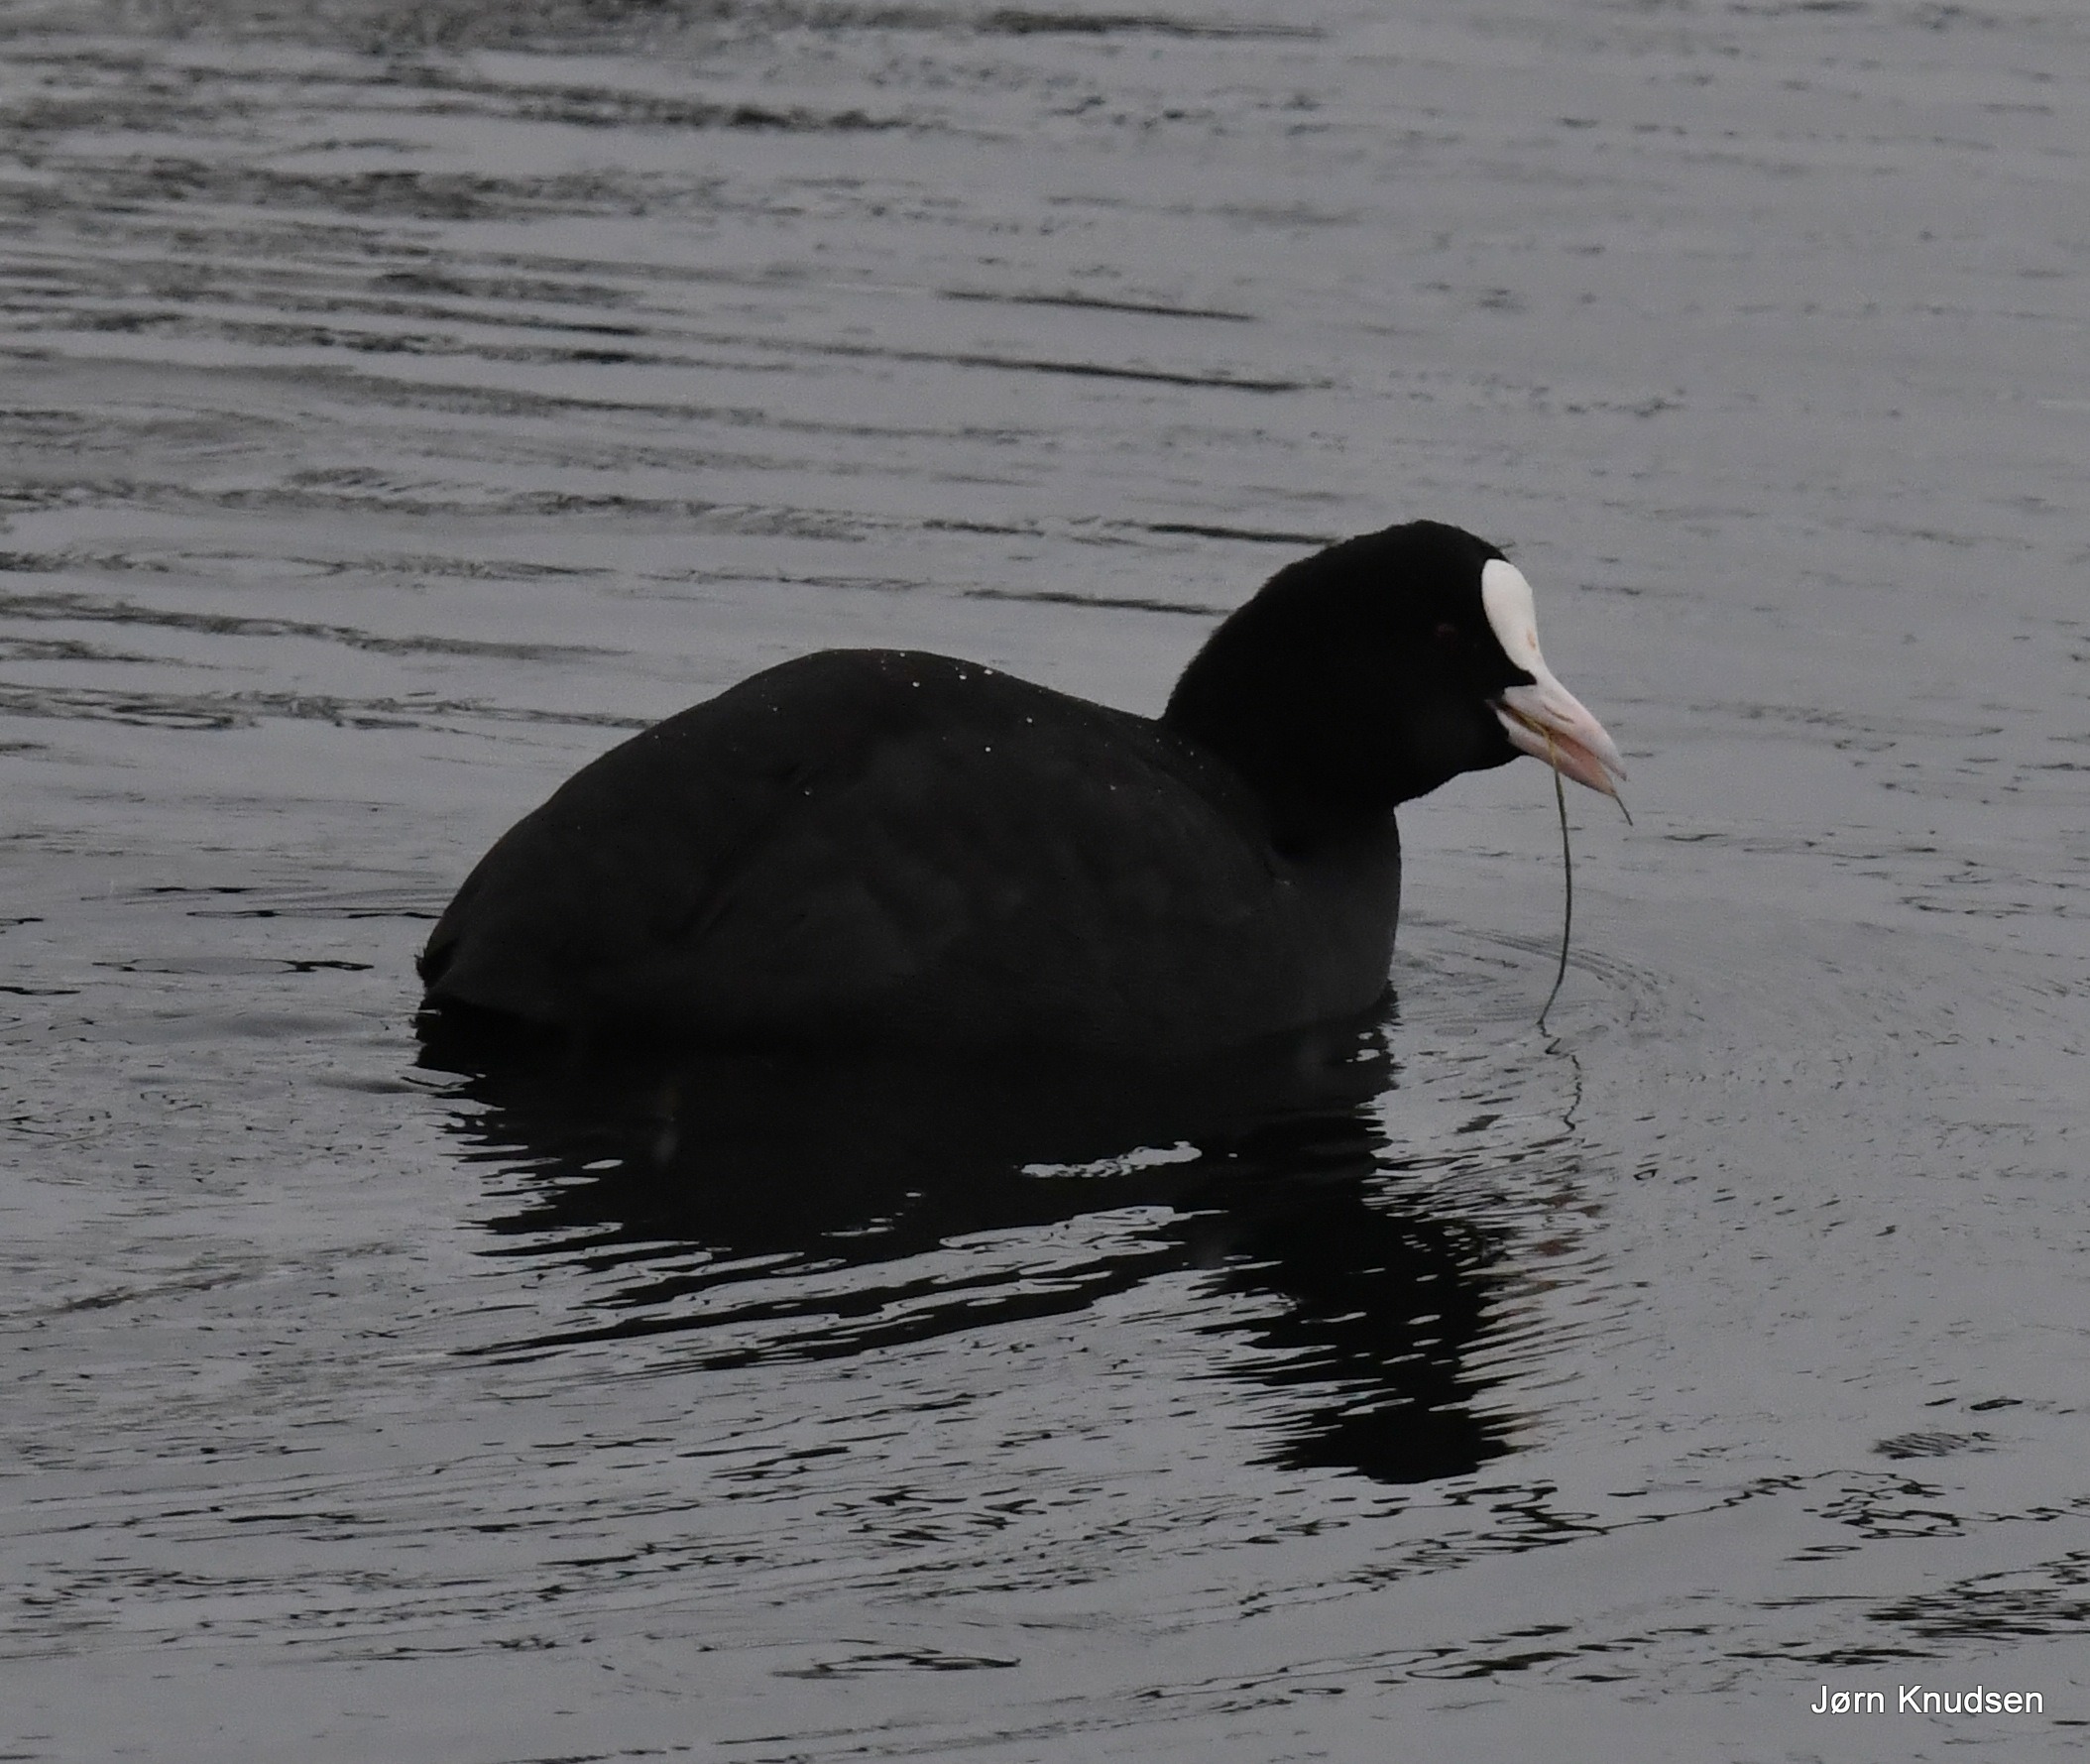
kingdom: Animalia
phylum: Chordata
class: Aves
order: Gruiformes
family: Rallidae
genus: Fulica
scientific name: Fulica atra
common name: Blishøne
